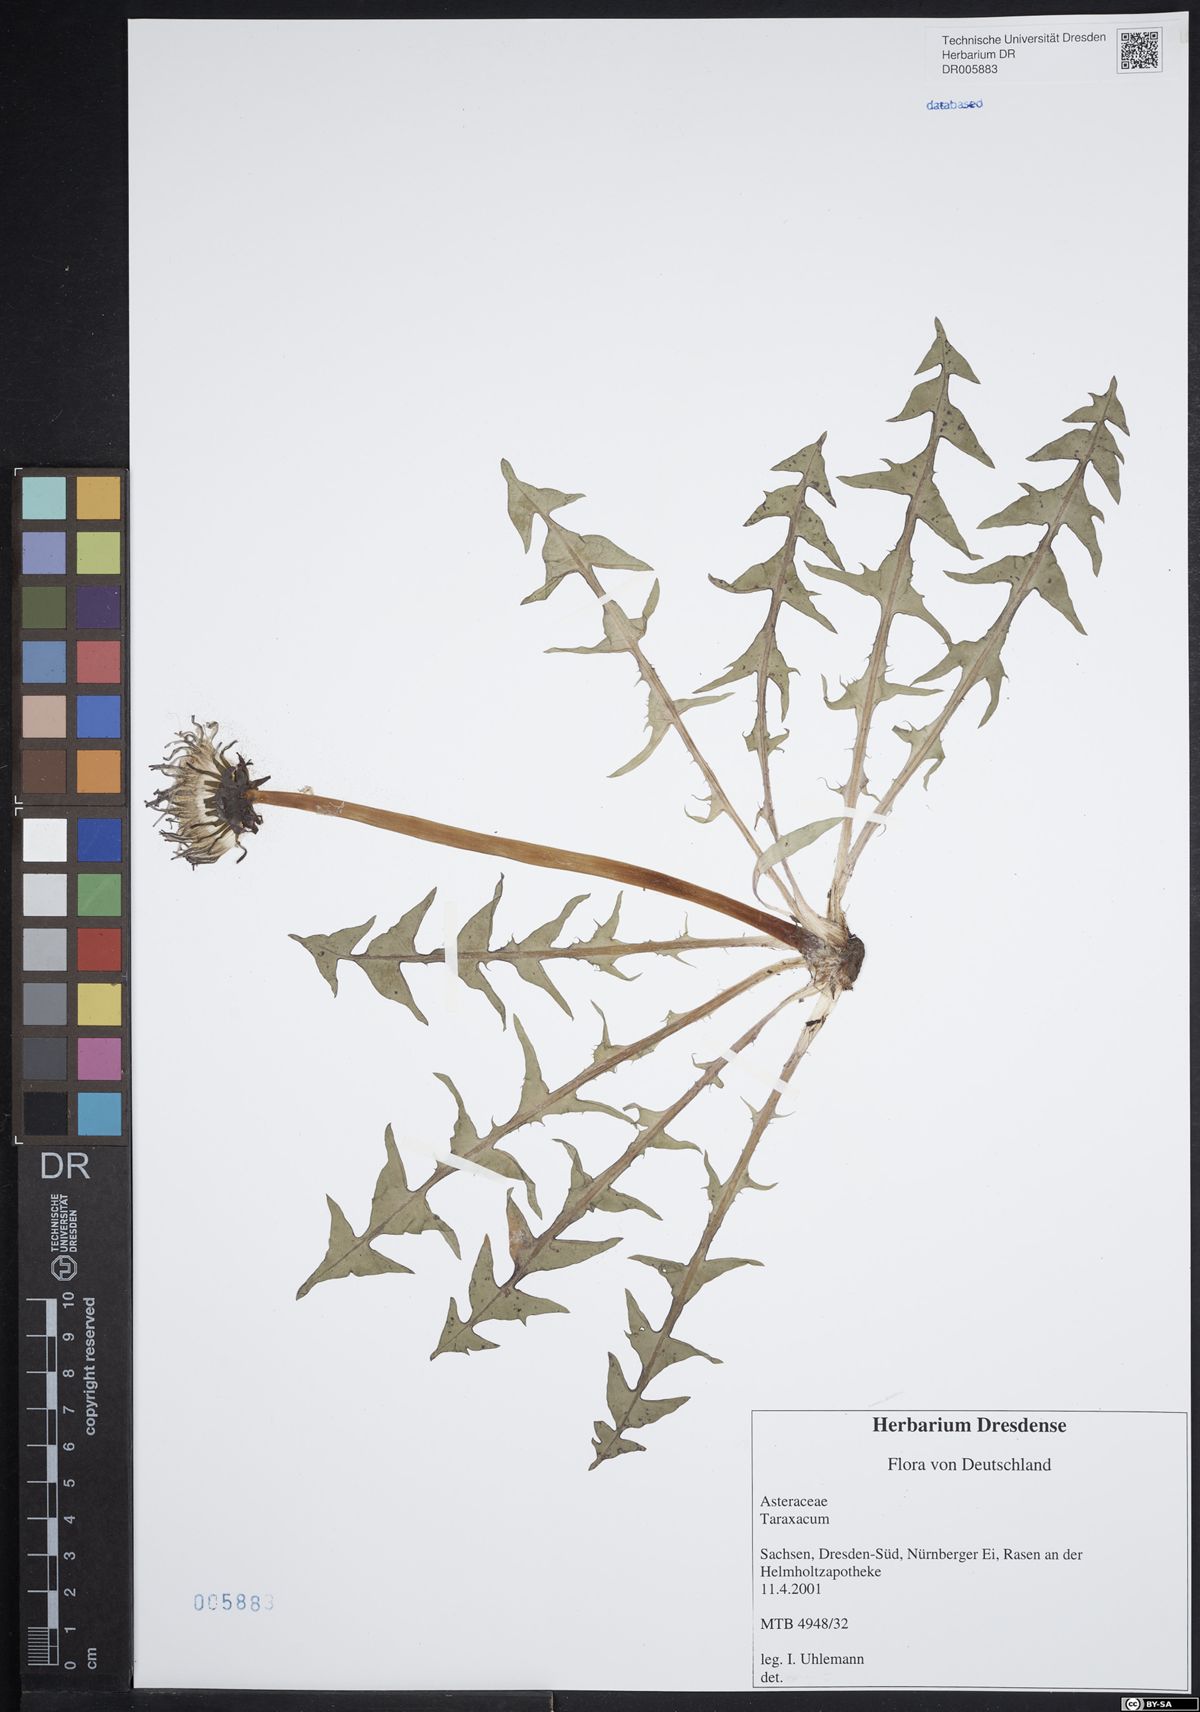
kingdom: Plantae
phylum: Tracheophyta
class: Magnoliopsida
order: Asterales
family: Asteraceae
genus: Taraxacum
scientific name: Taraxacum guttigestans
